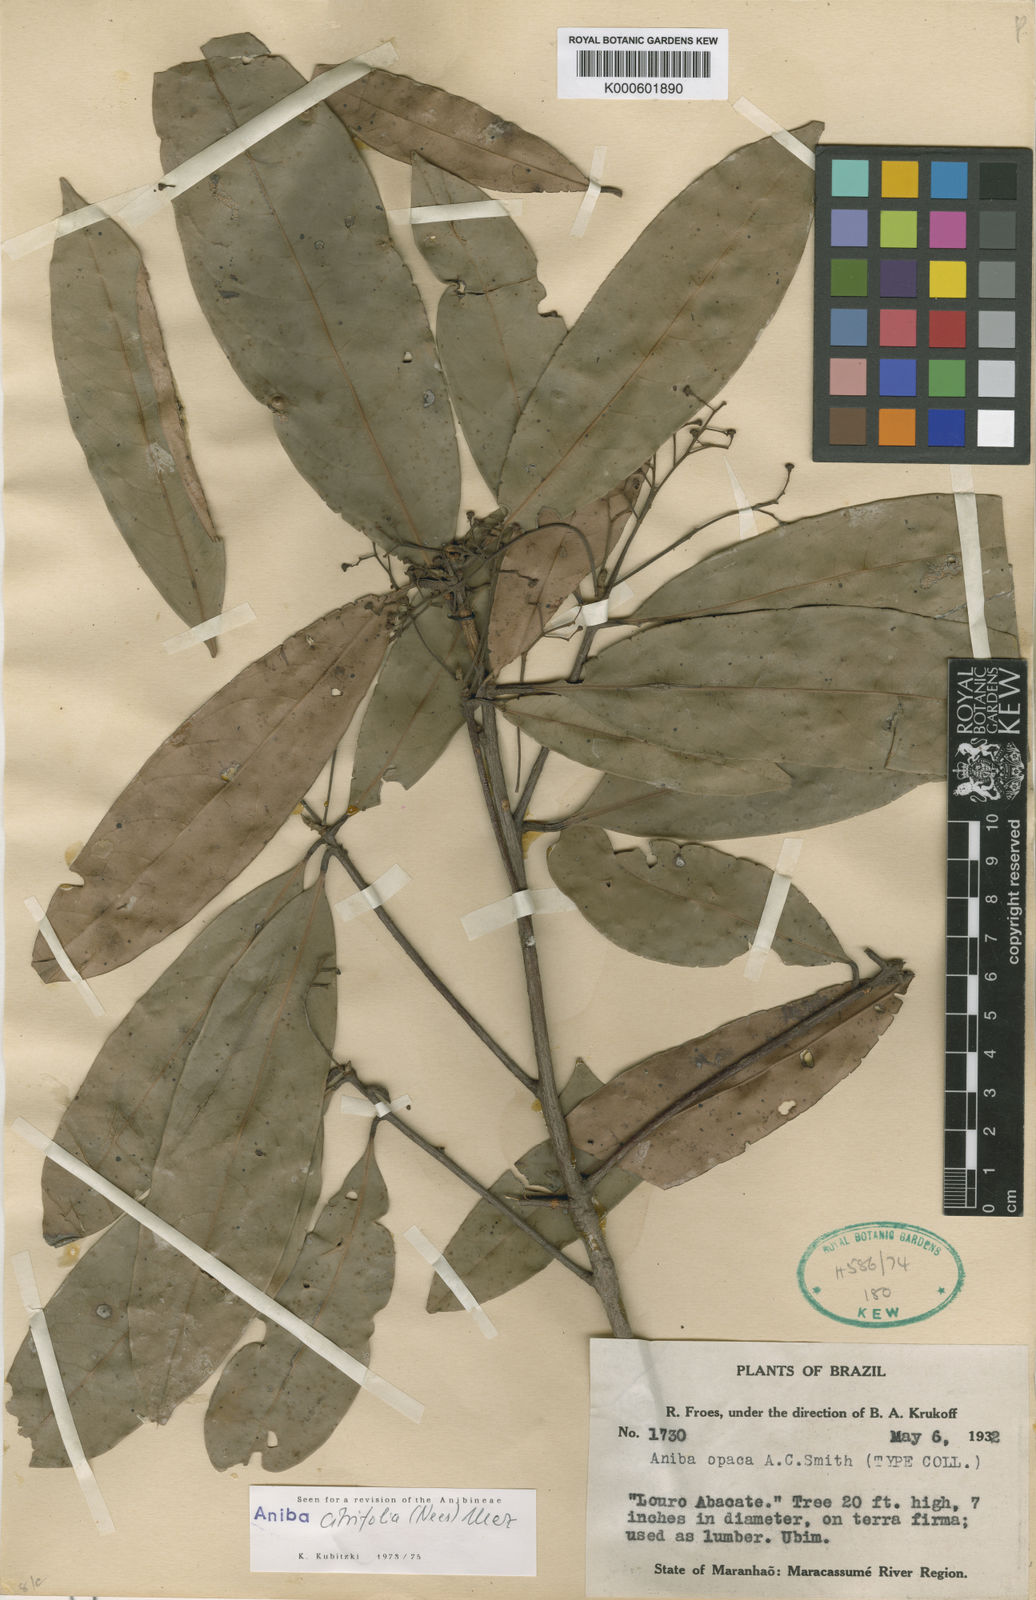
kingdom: Plantae
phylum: Tracheophyta
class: Magnoliopsida
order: Laurales
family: Lauraceae
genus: Aniba
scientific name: Aniba citrifolia
